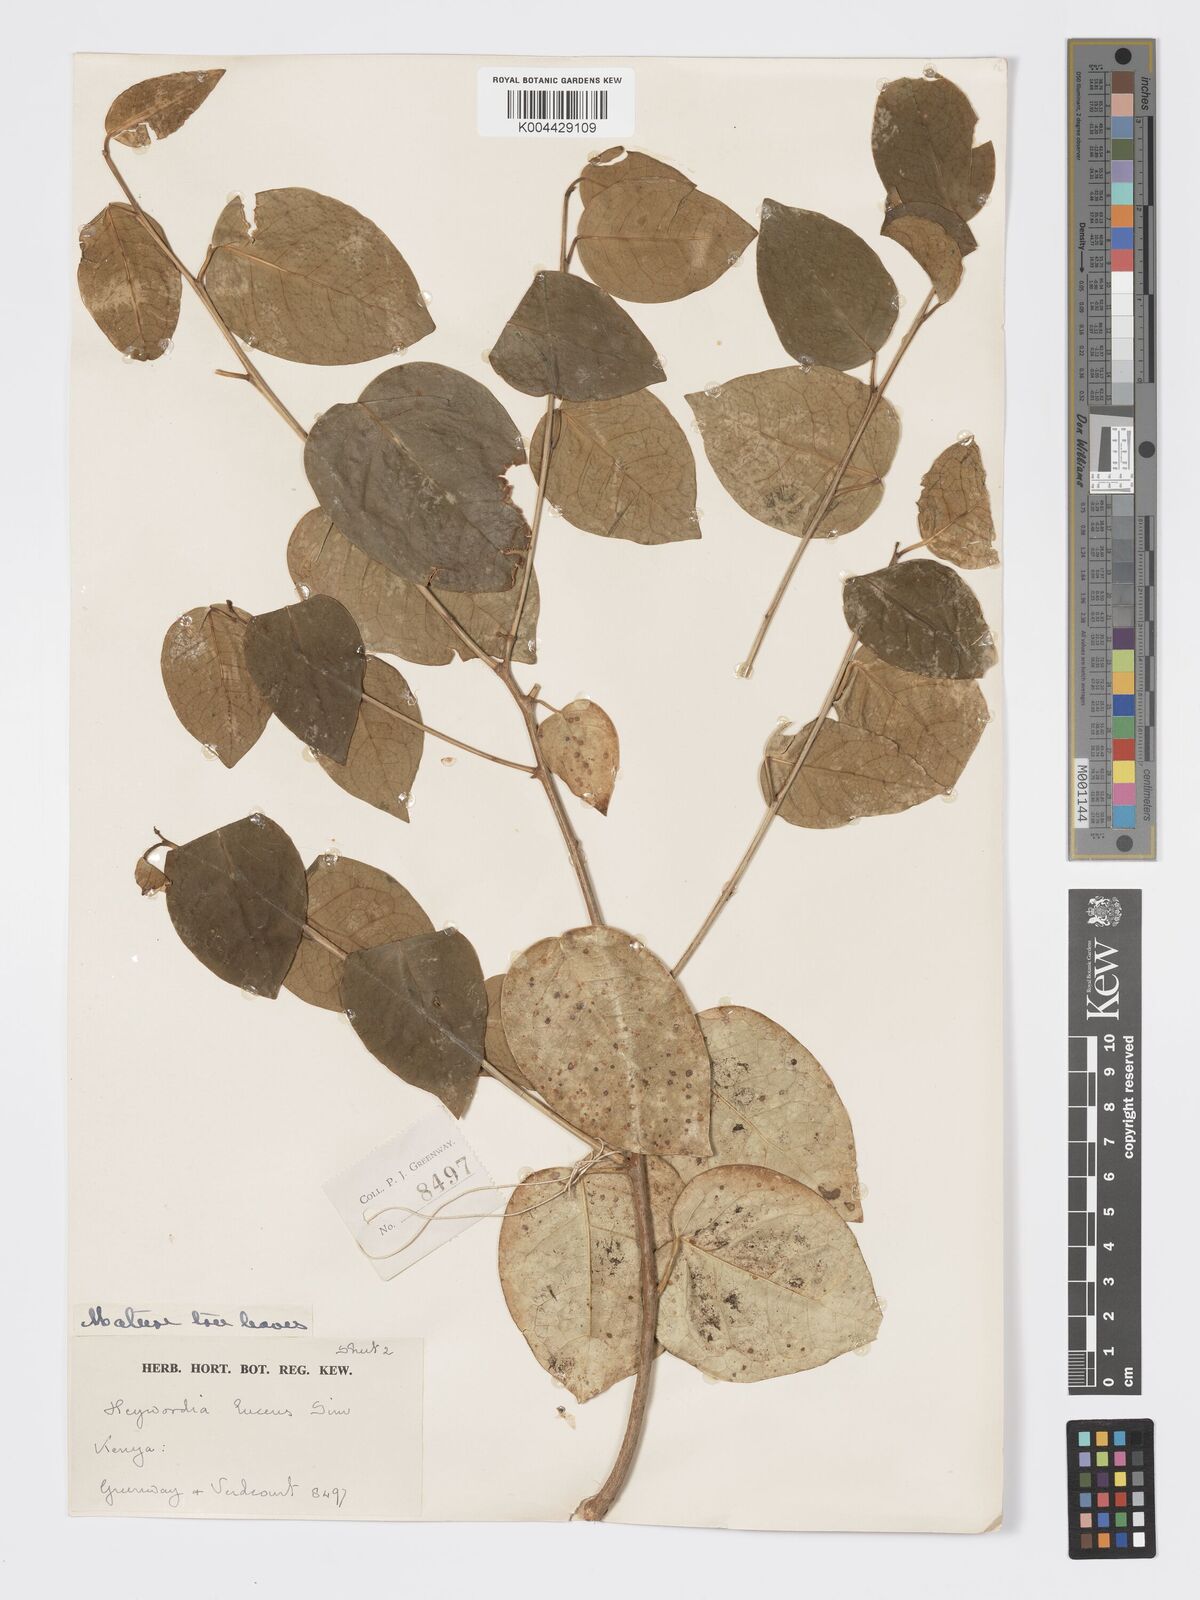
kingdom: Plantae
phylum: Tracheophyta
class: Magnoliopsida
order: Malpighiales
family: Phyllanthaceae
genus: Heywoodia
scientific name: Heywoodia lucens
